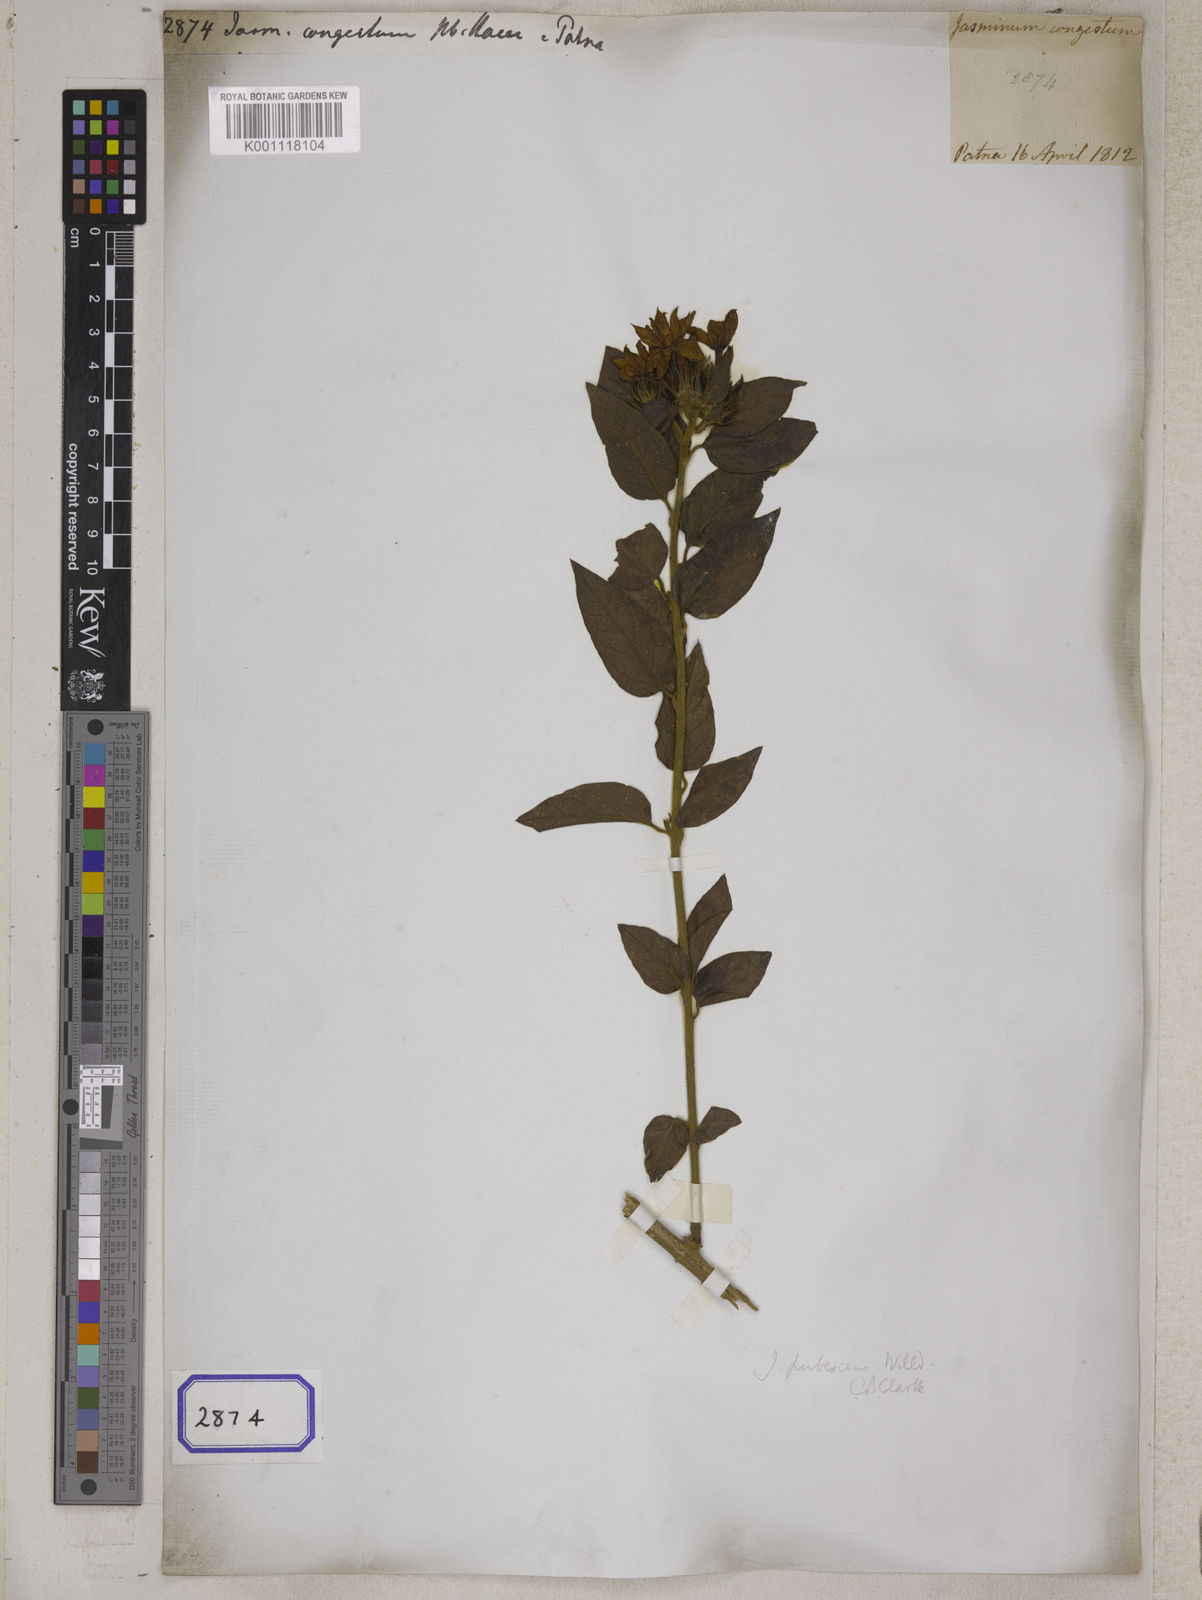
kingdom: Plantae
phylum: Tracheophyta
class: Magnoliopsida
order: Lamiales
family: Oleaceae
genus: Jasminum
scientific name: Jasminum
